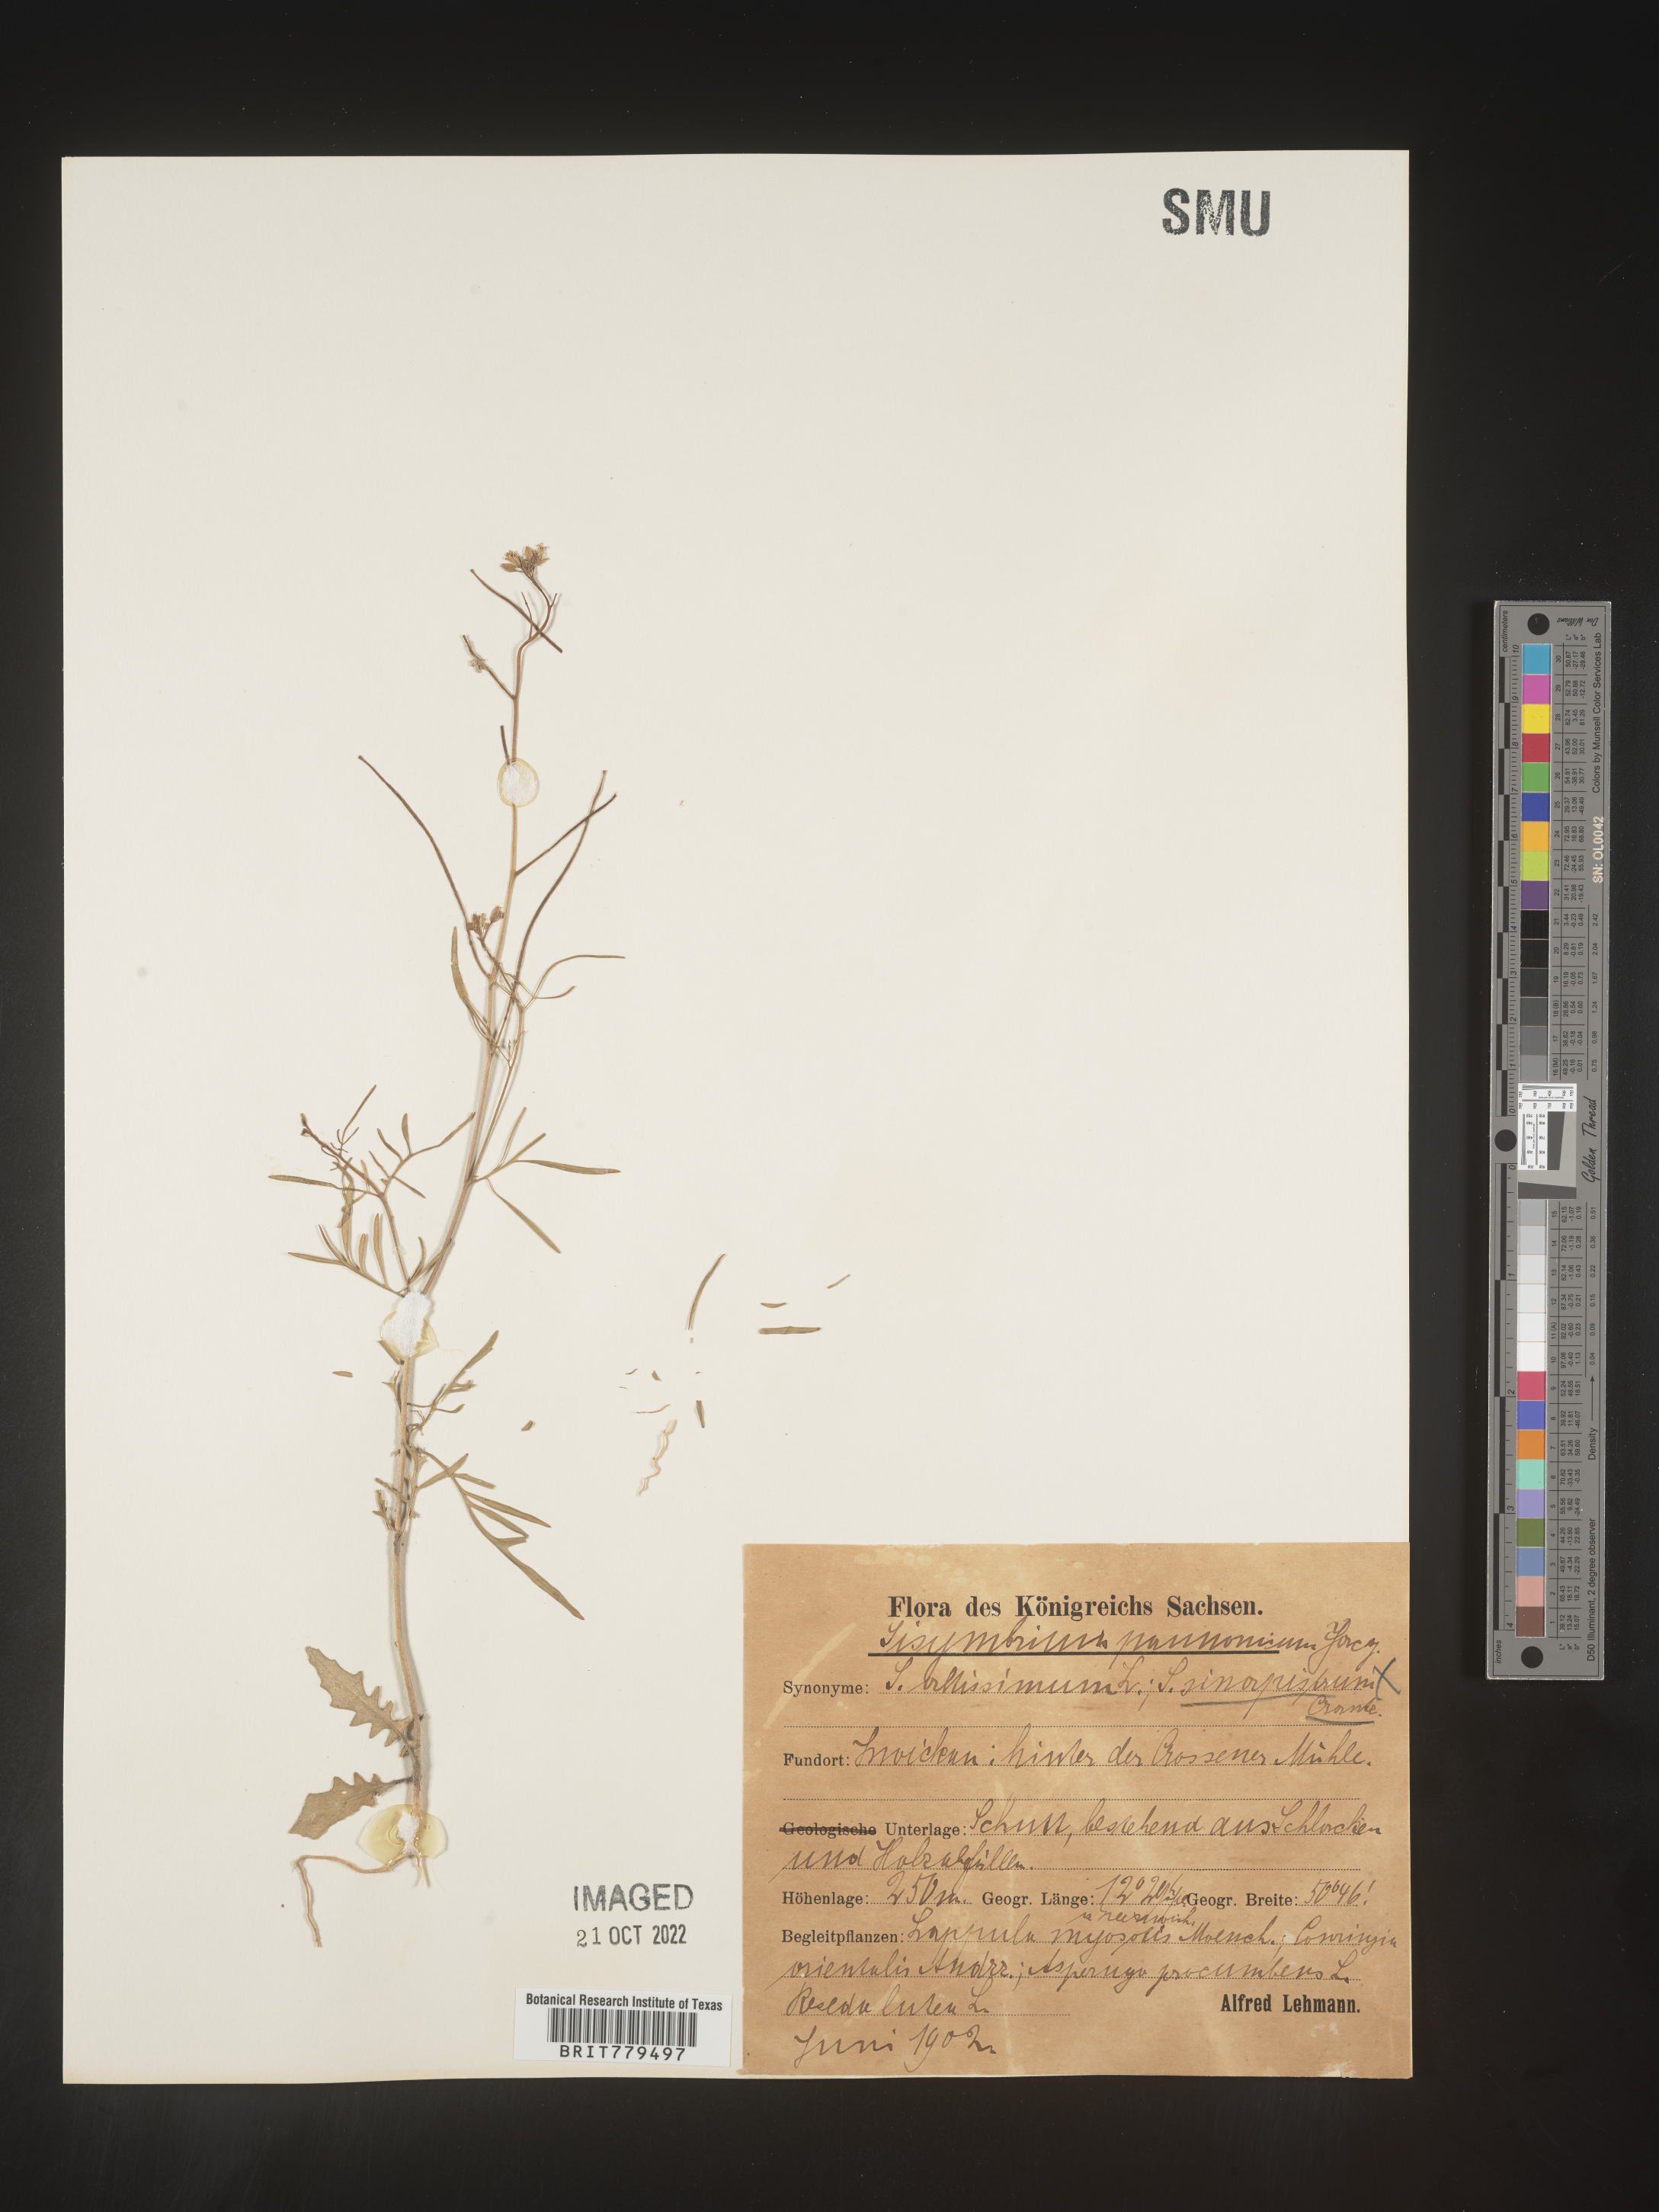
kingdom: Plantae
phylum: Tracheophyta
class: Magnoliopsida
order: Brassicales
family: Brassicaceae
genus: Sisymbrium
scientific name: Sisymbrium
